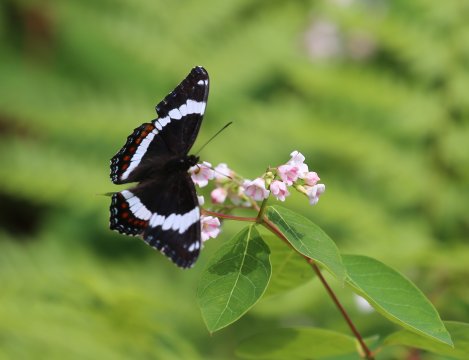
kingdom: Animalia
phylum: Arthropoda
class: Insecta
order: Lepidoptera
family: Nymphalidae
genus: Limenitis
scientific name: Limenitis arthemis
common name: Red-spotted Admiral
